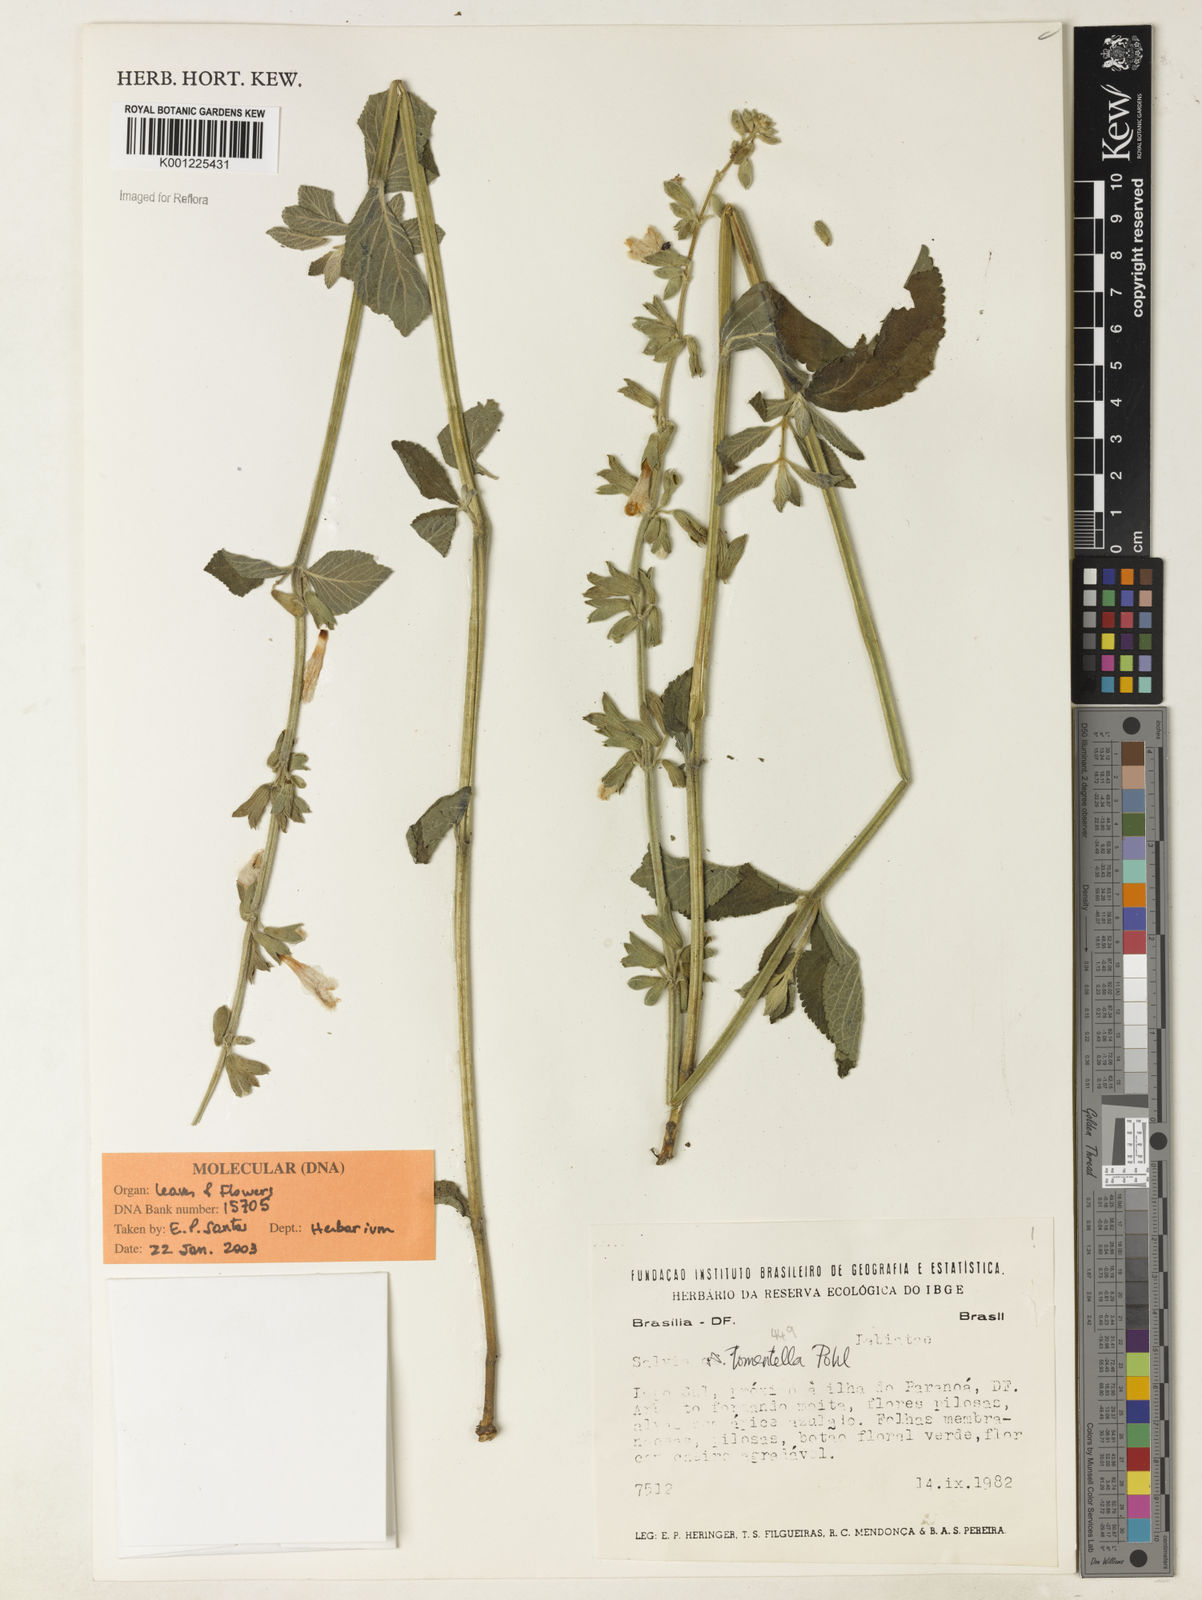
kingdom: Plantae
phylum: Tracheophyta
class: Magnoliopsida
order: Lamiales
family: Lamiaceae
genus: Salvia
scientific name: Salvia tomentella
